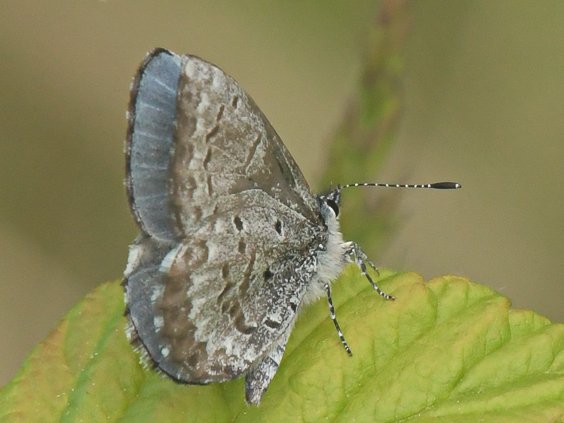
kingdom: Animalia
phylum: Arthropoda
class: Insecta
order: Lepidoptera
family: Lycaenidae
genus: Celastrina
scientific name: Celastrina lucia
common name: Northern Spring Azure
